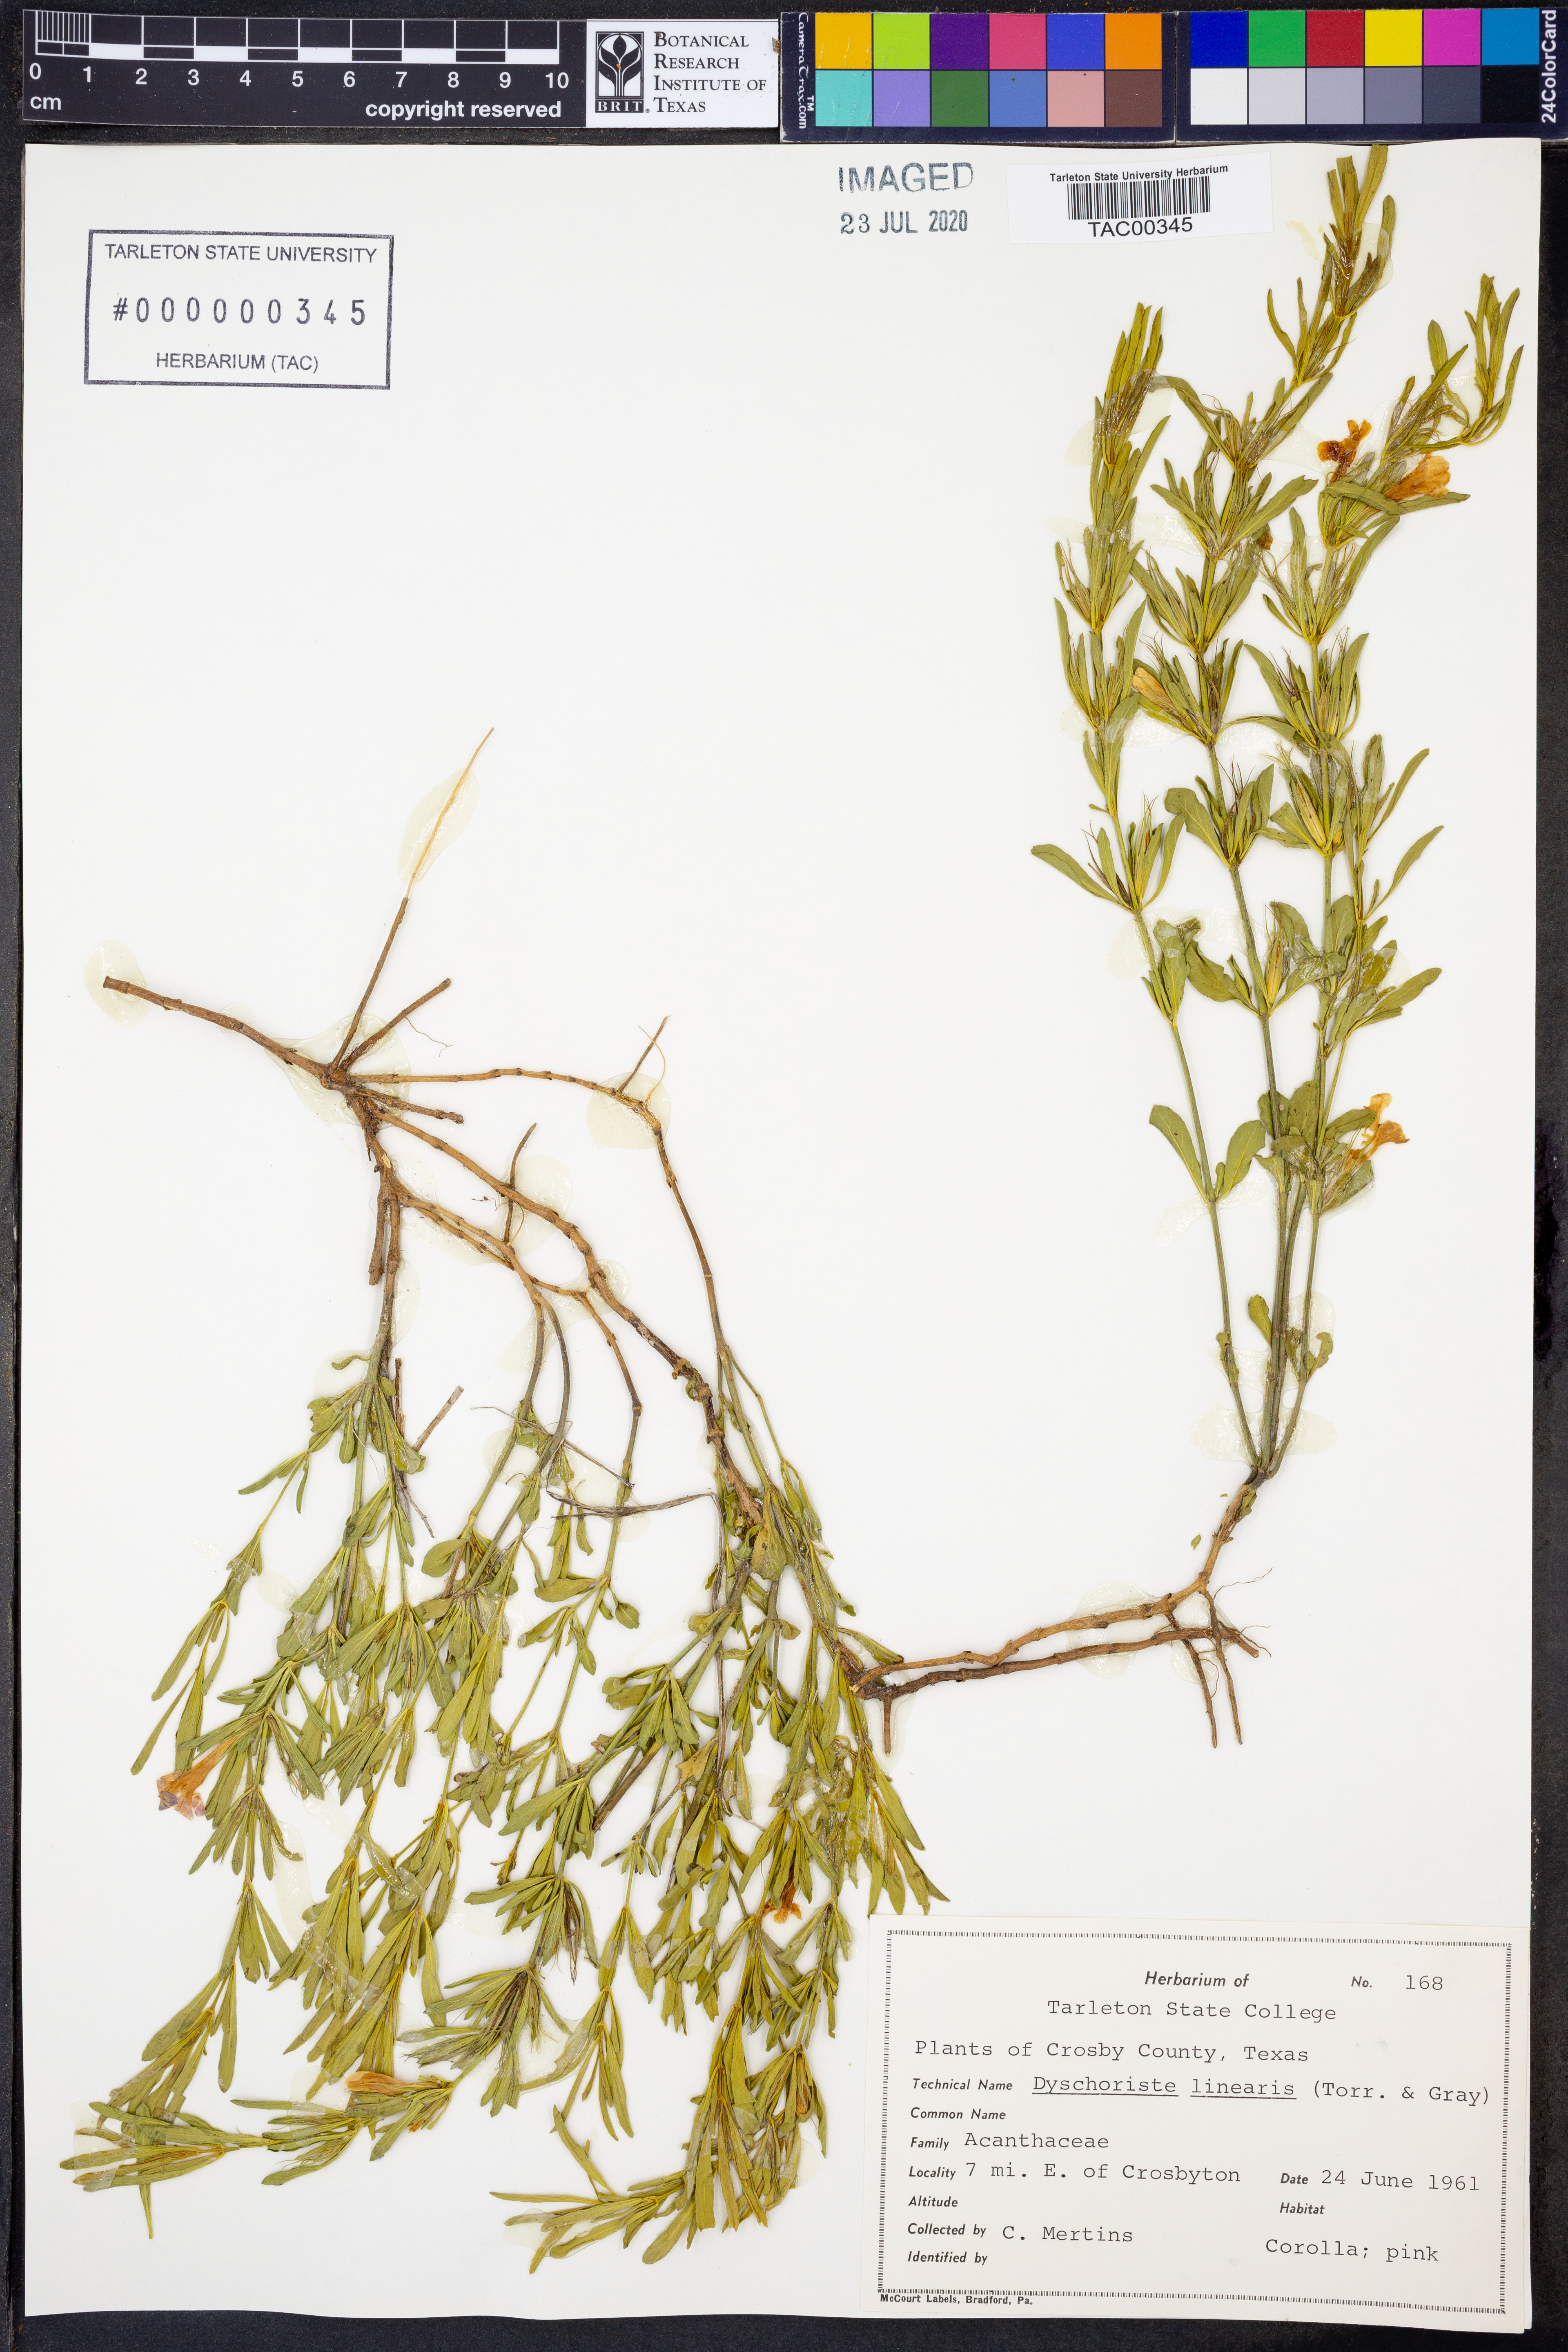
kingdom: Plantae
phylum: Tracheophyta
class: Magnoliopsida
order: Lamiales
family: Acanthaceae
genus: Dyschoriste
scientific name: Dyschoriste linearis
